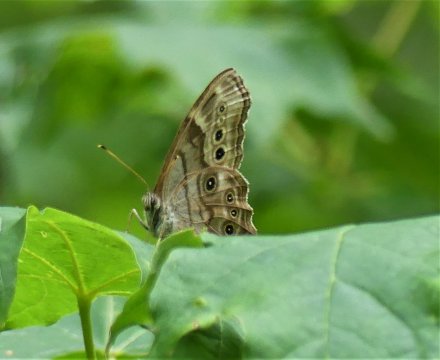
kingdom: Animalia
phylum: Arthropoda
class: Insecta
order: Lepidoptera
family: Nymphalidae
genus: Lethe
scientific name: Lethe anthedon
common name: Northern Pearly-Eye
